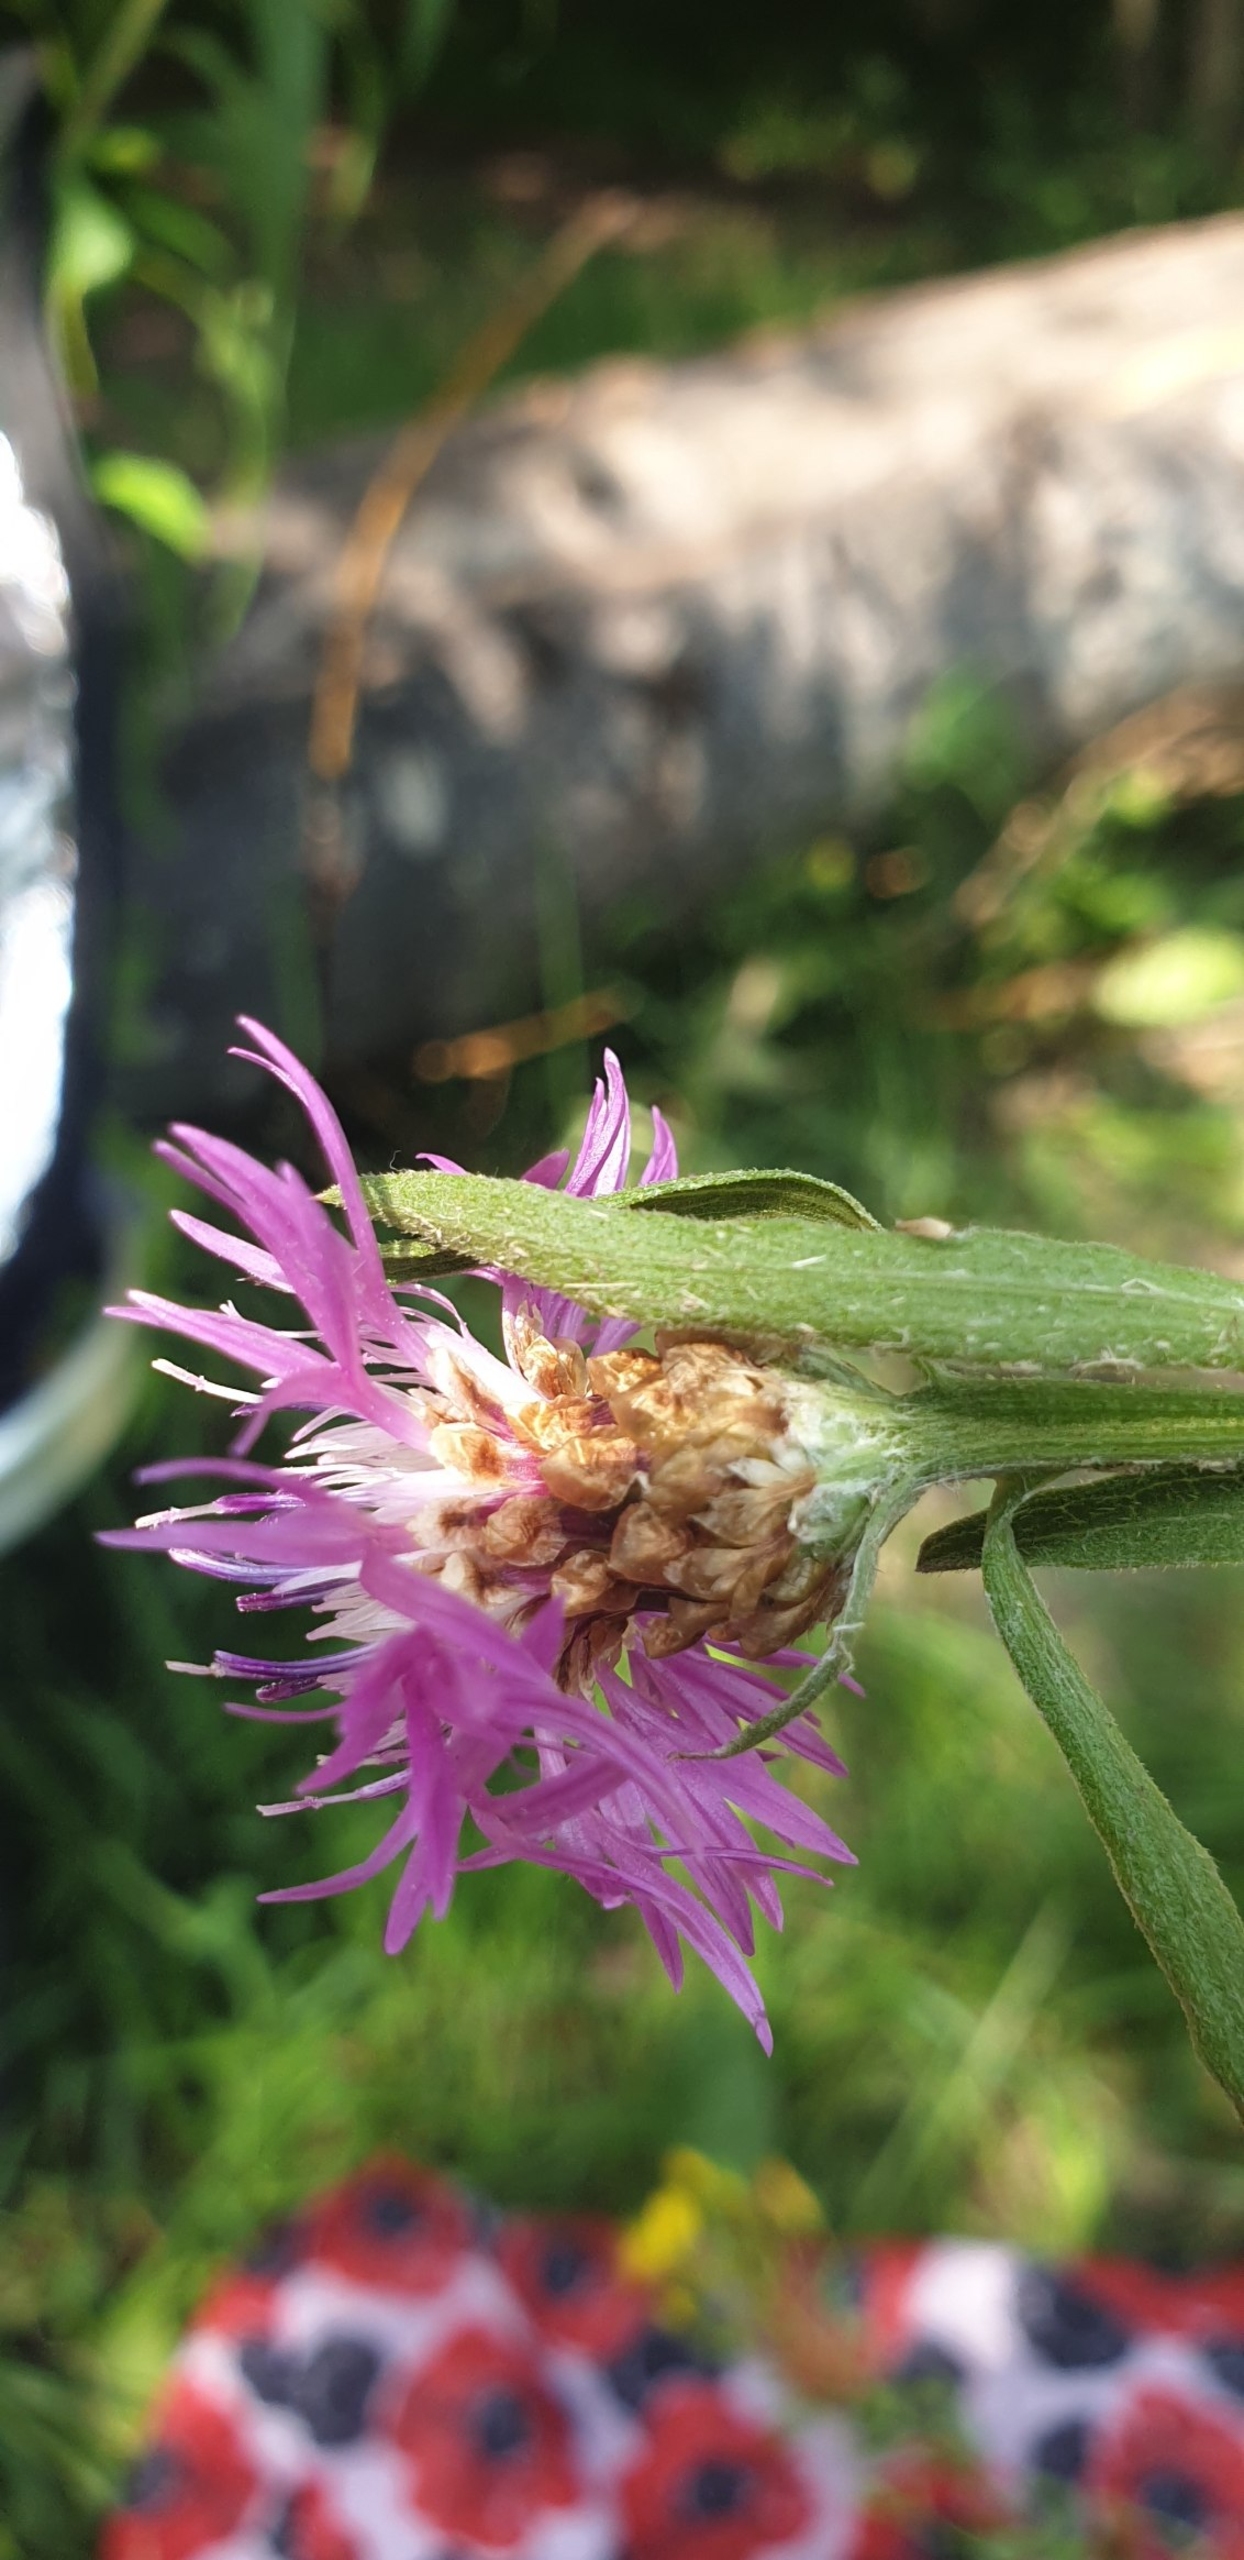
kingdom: Plantae
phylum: Tracheophyta
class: Magnoliopsida
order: Asterales
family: Asteraceae
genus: Centaurea
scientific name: Centaurea jacea
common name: Almindelig knopurt
